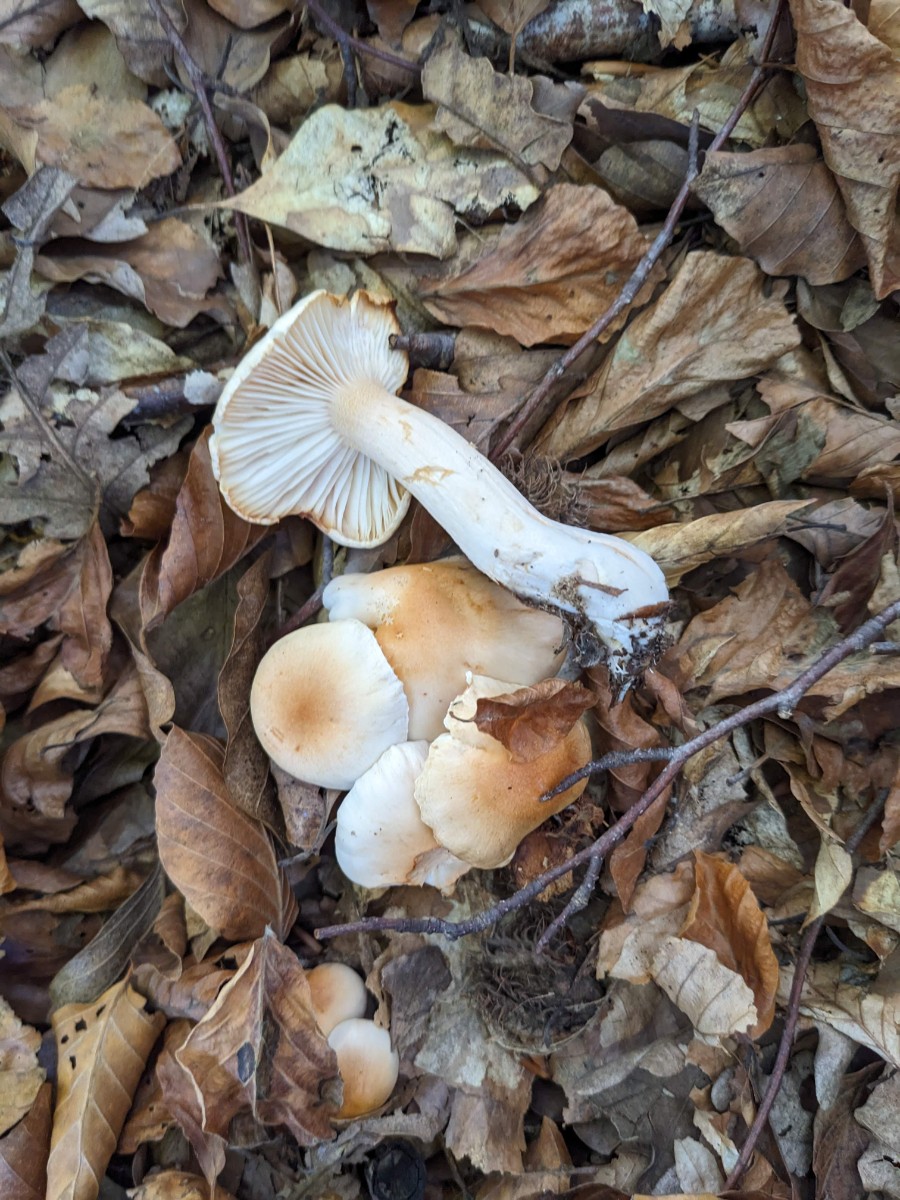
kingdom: Fungi
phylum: Basidiomycota
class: Agaricomycetes
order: Agaricales
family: Hygrophoraceae
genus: Hygrophorus
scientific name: Hygrophorus unicolor
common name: orangeøjet sneglehat
